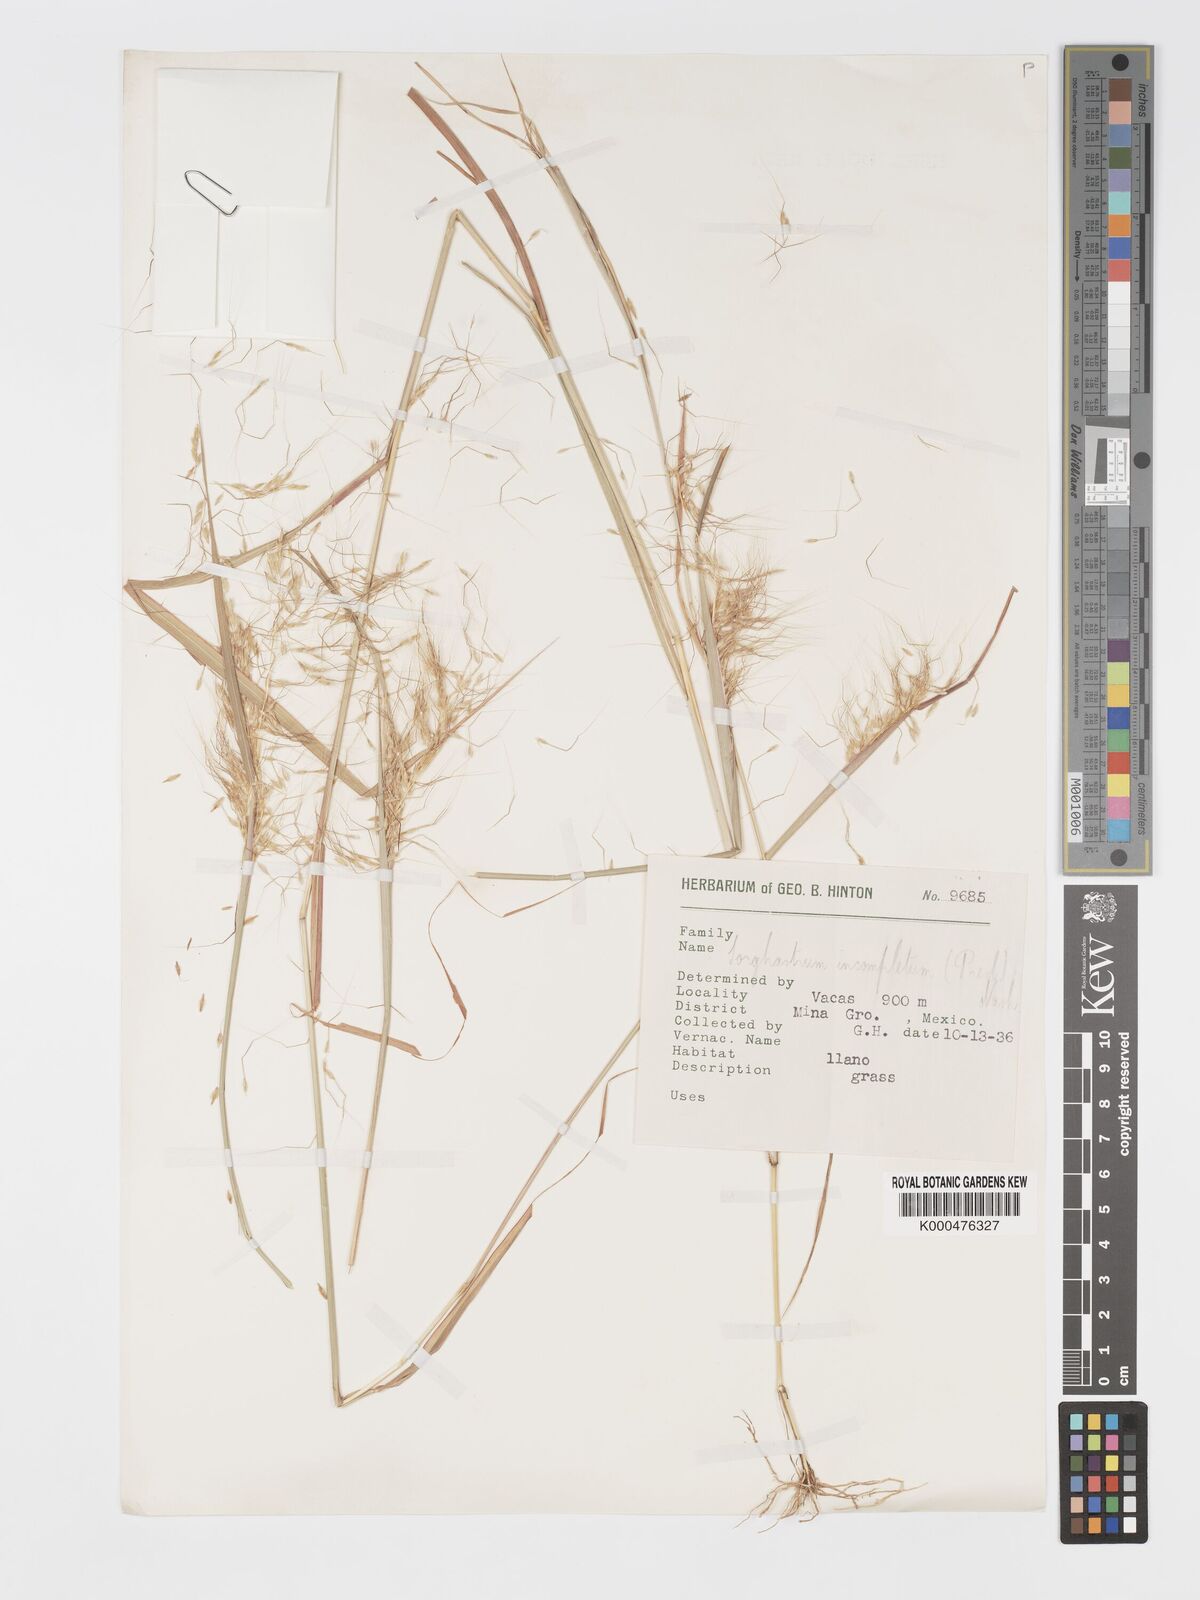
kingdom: Plantae
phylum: Tracheophyta
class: Liliopsida
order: Poales
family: Poaceae
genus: Sorghastrum
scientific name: Sorghastrum incompletum
